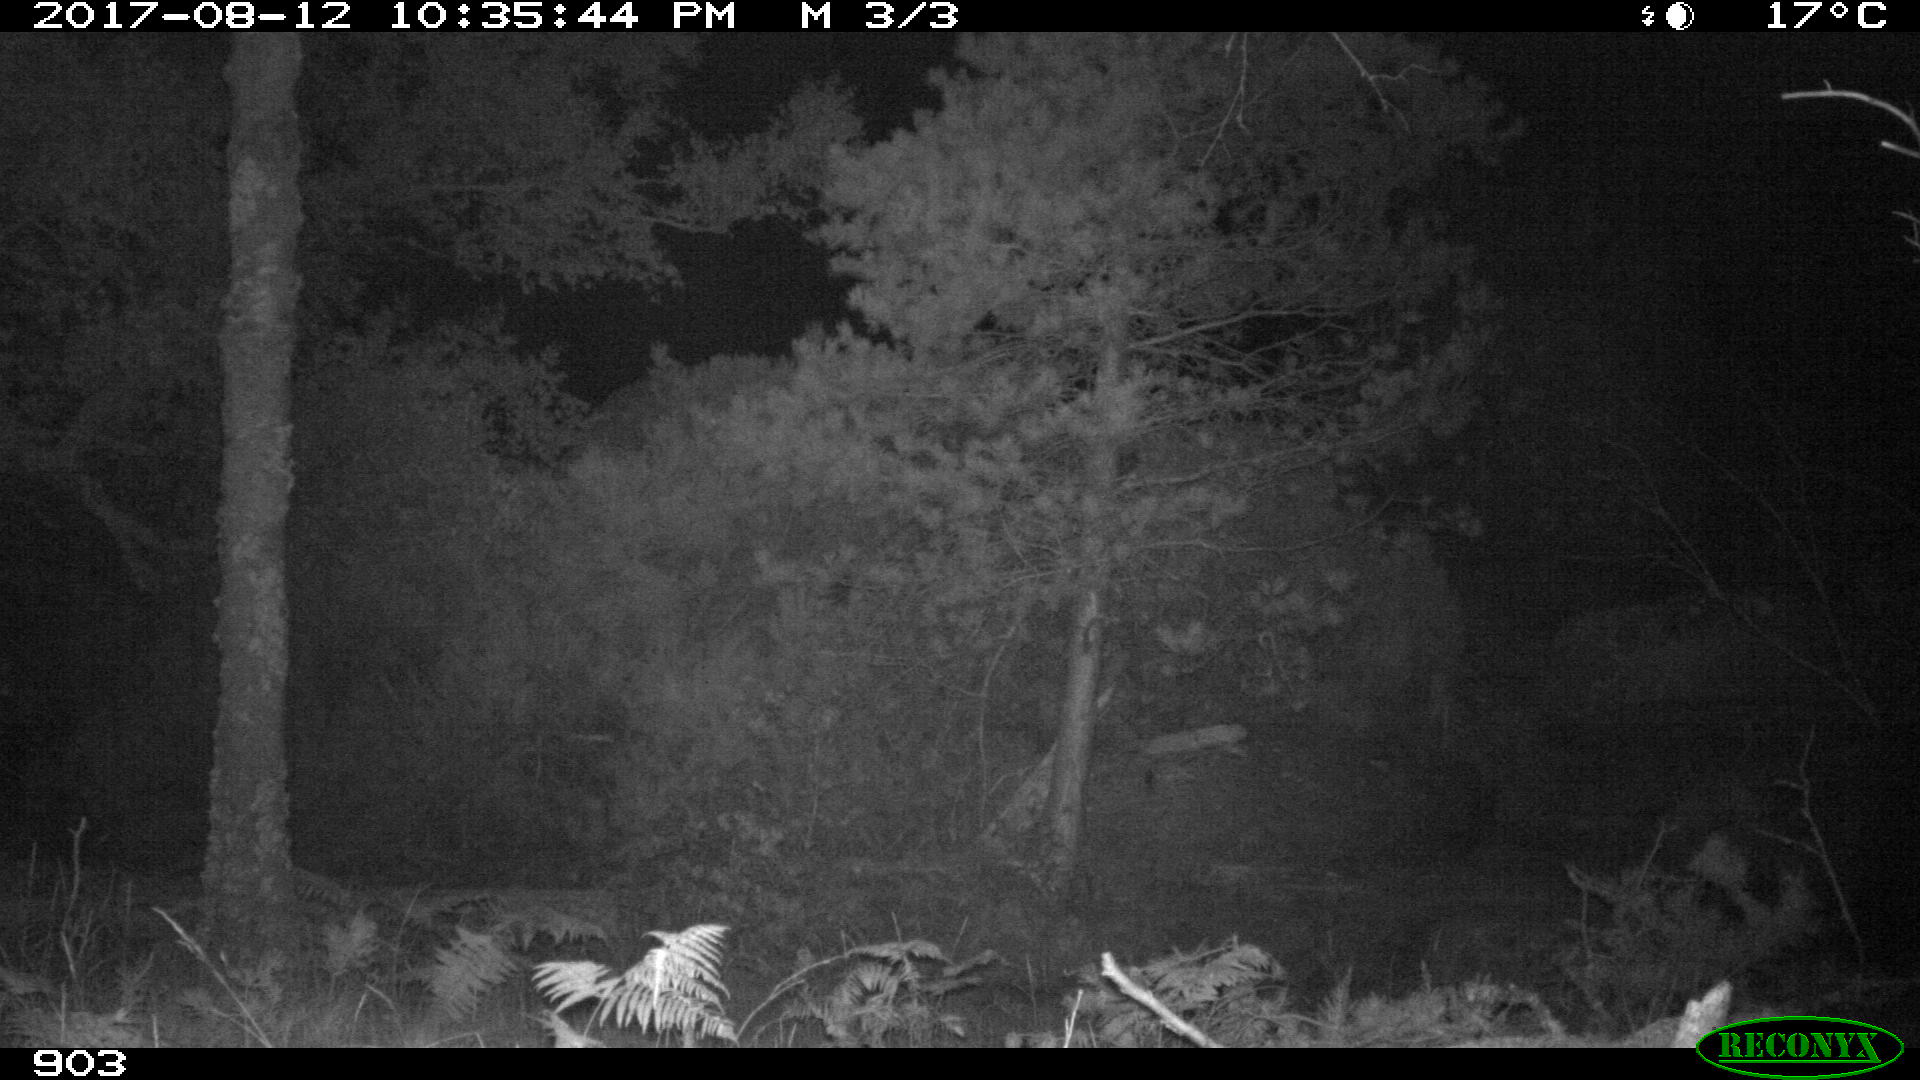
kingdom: Animalia
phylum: Chordata
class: Mammalia
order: Perissodactyla
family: Equidae
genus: Equus
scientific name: Equus caballus
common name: Horse
